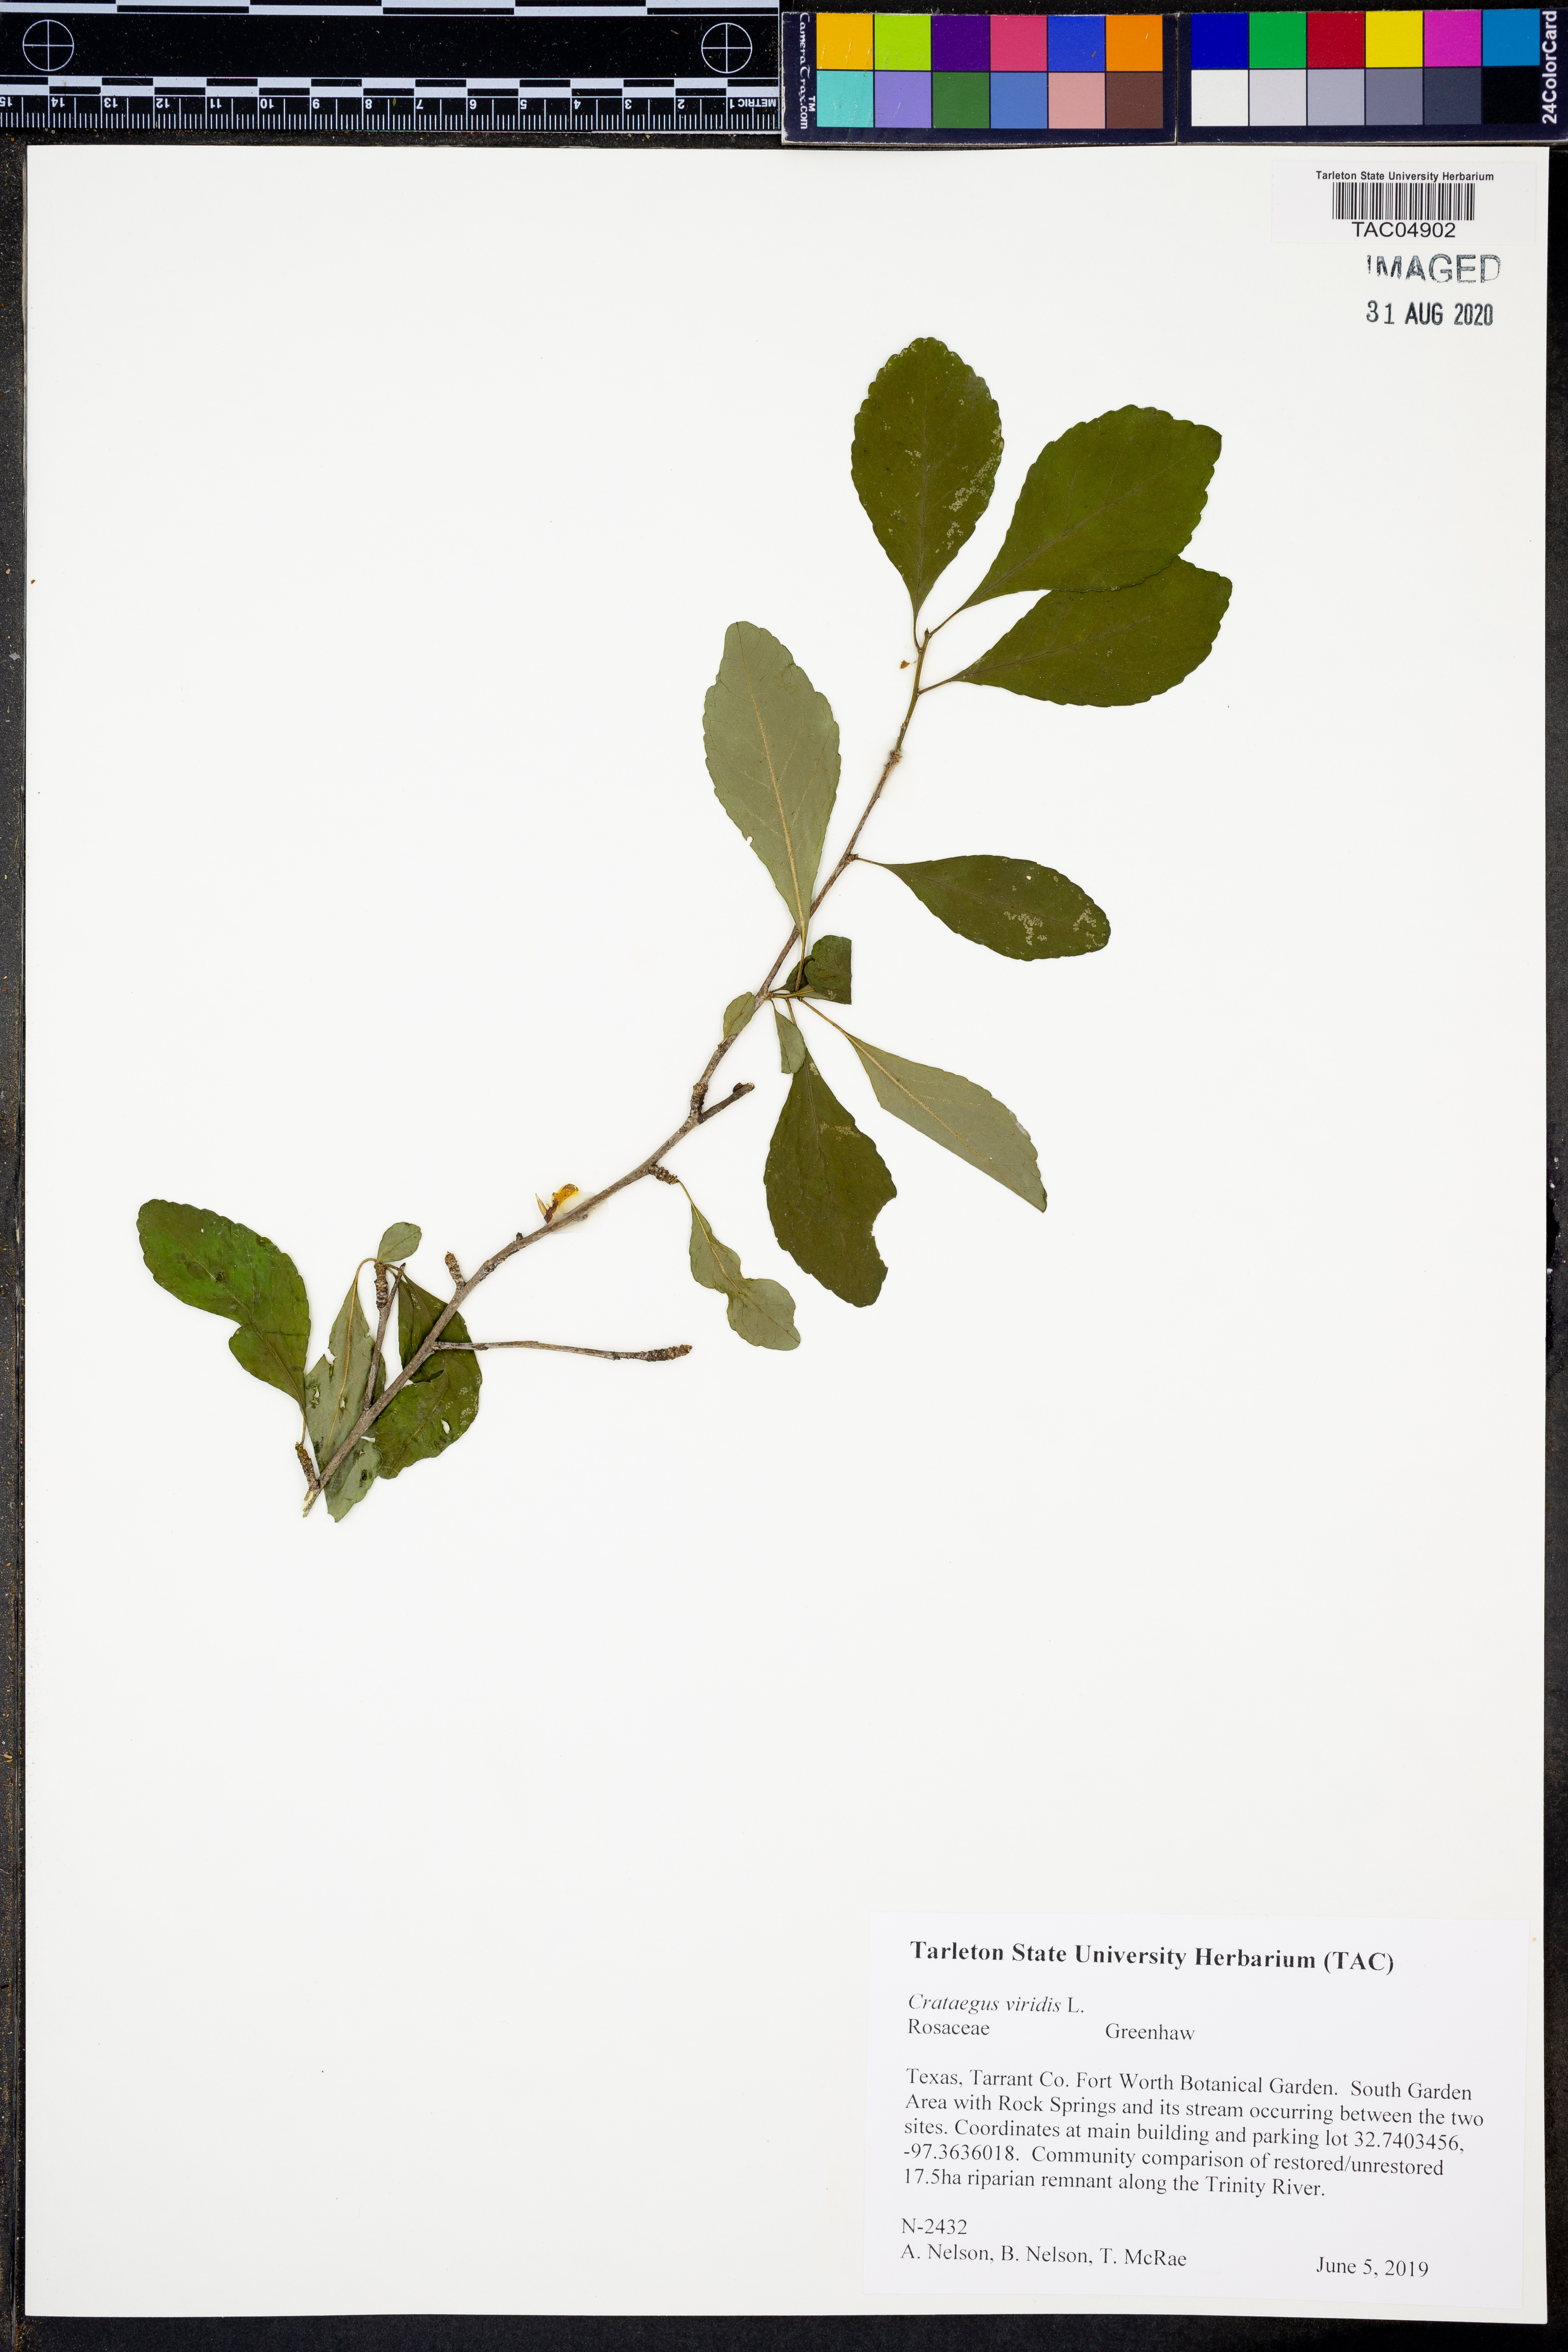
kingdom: Plantae
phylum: Tracheophyta
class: Magnoliopsida
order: Rosales
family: Rosaceae
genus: Crataegus
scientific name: Crataegus viridis
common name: Southernthorn
